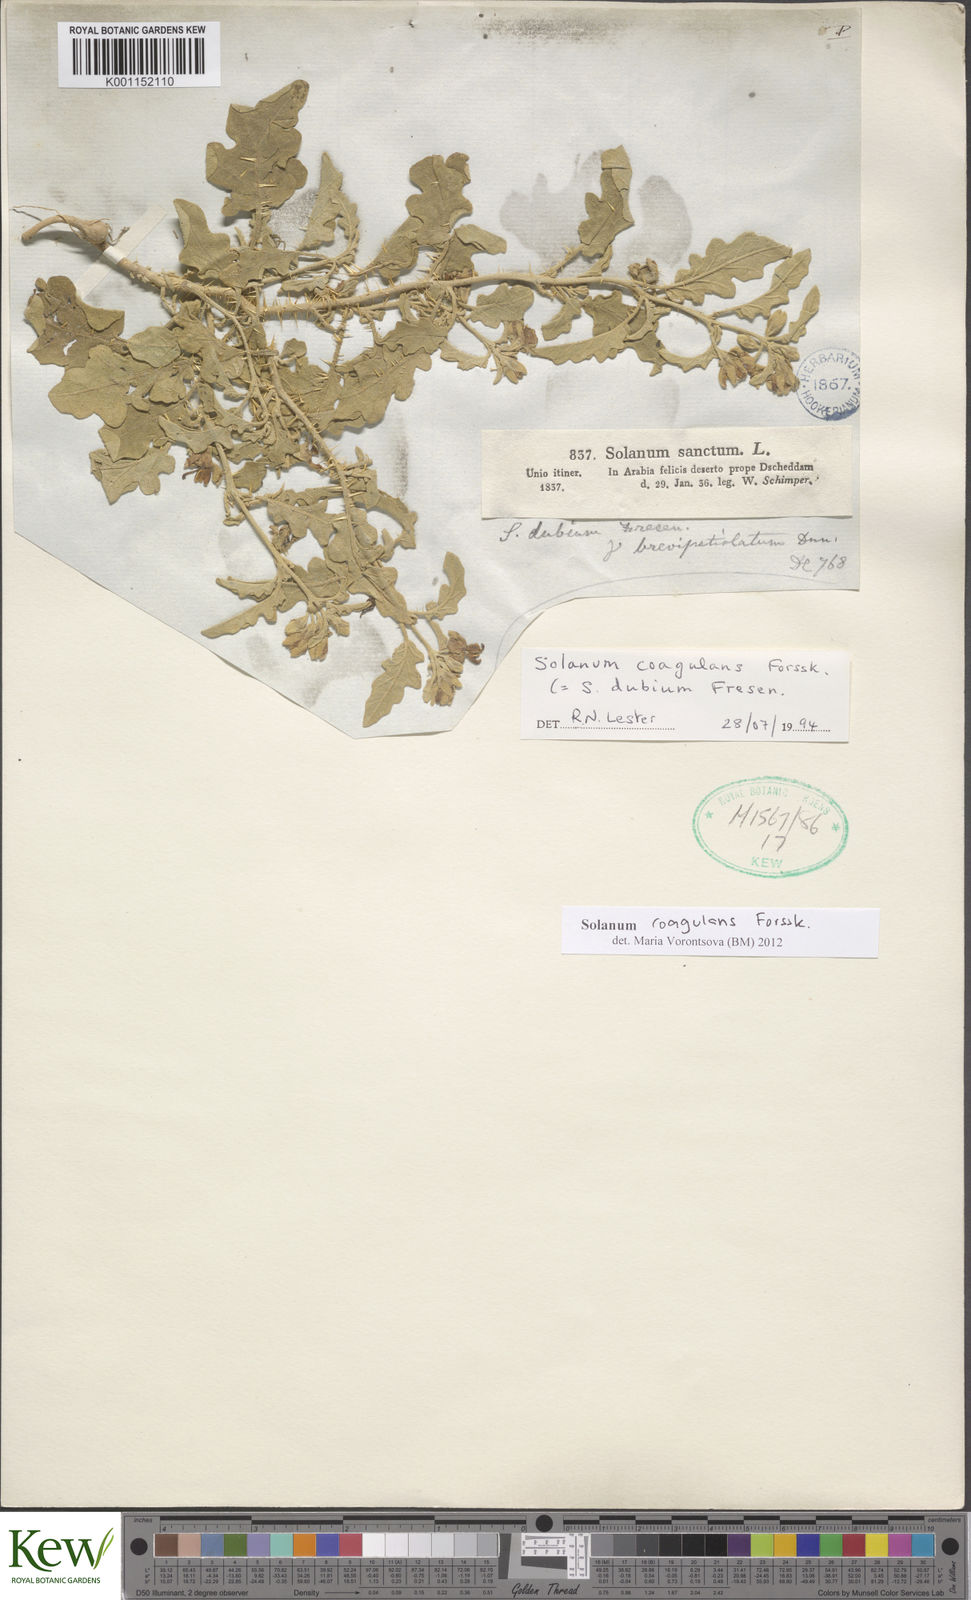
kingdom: Plantae
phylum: Tracheophyta
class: Magnoliopsida
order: Solanales
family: Solanaceae
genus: Solanum
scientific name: Solanum coagulans
